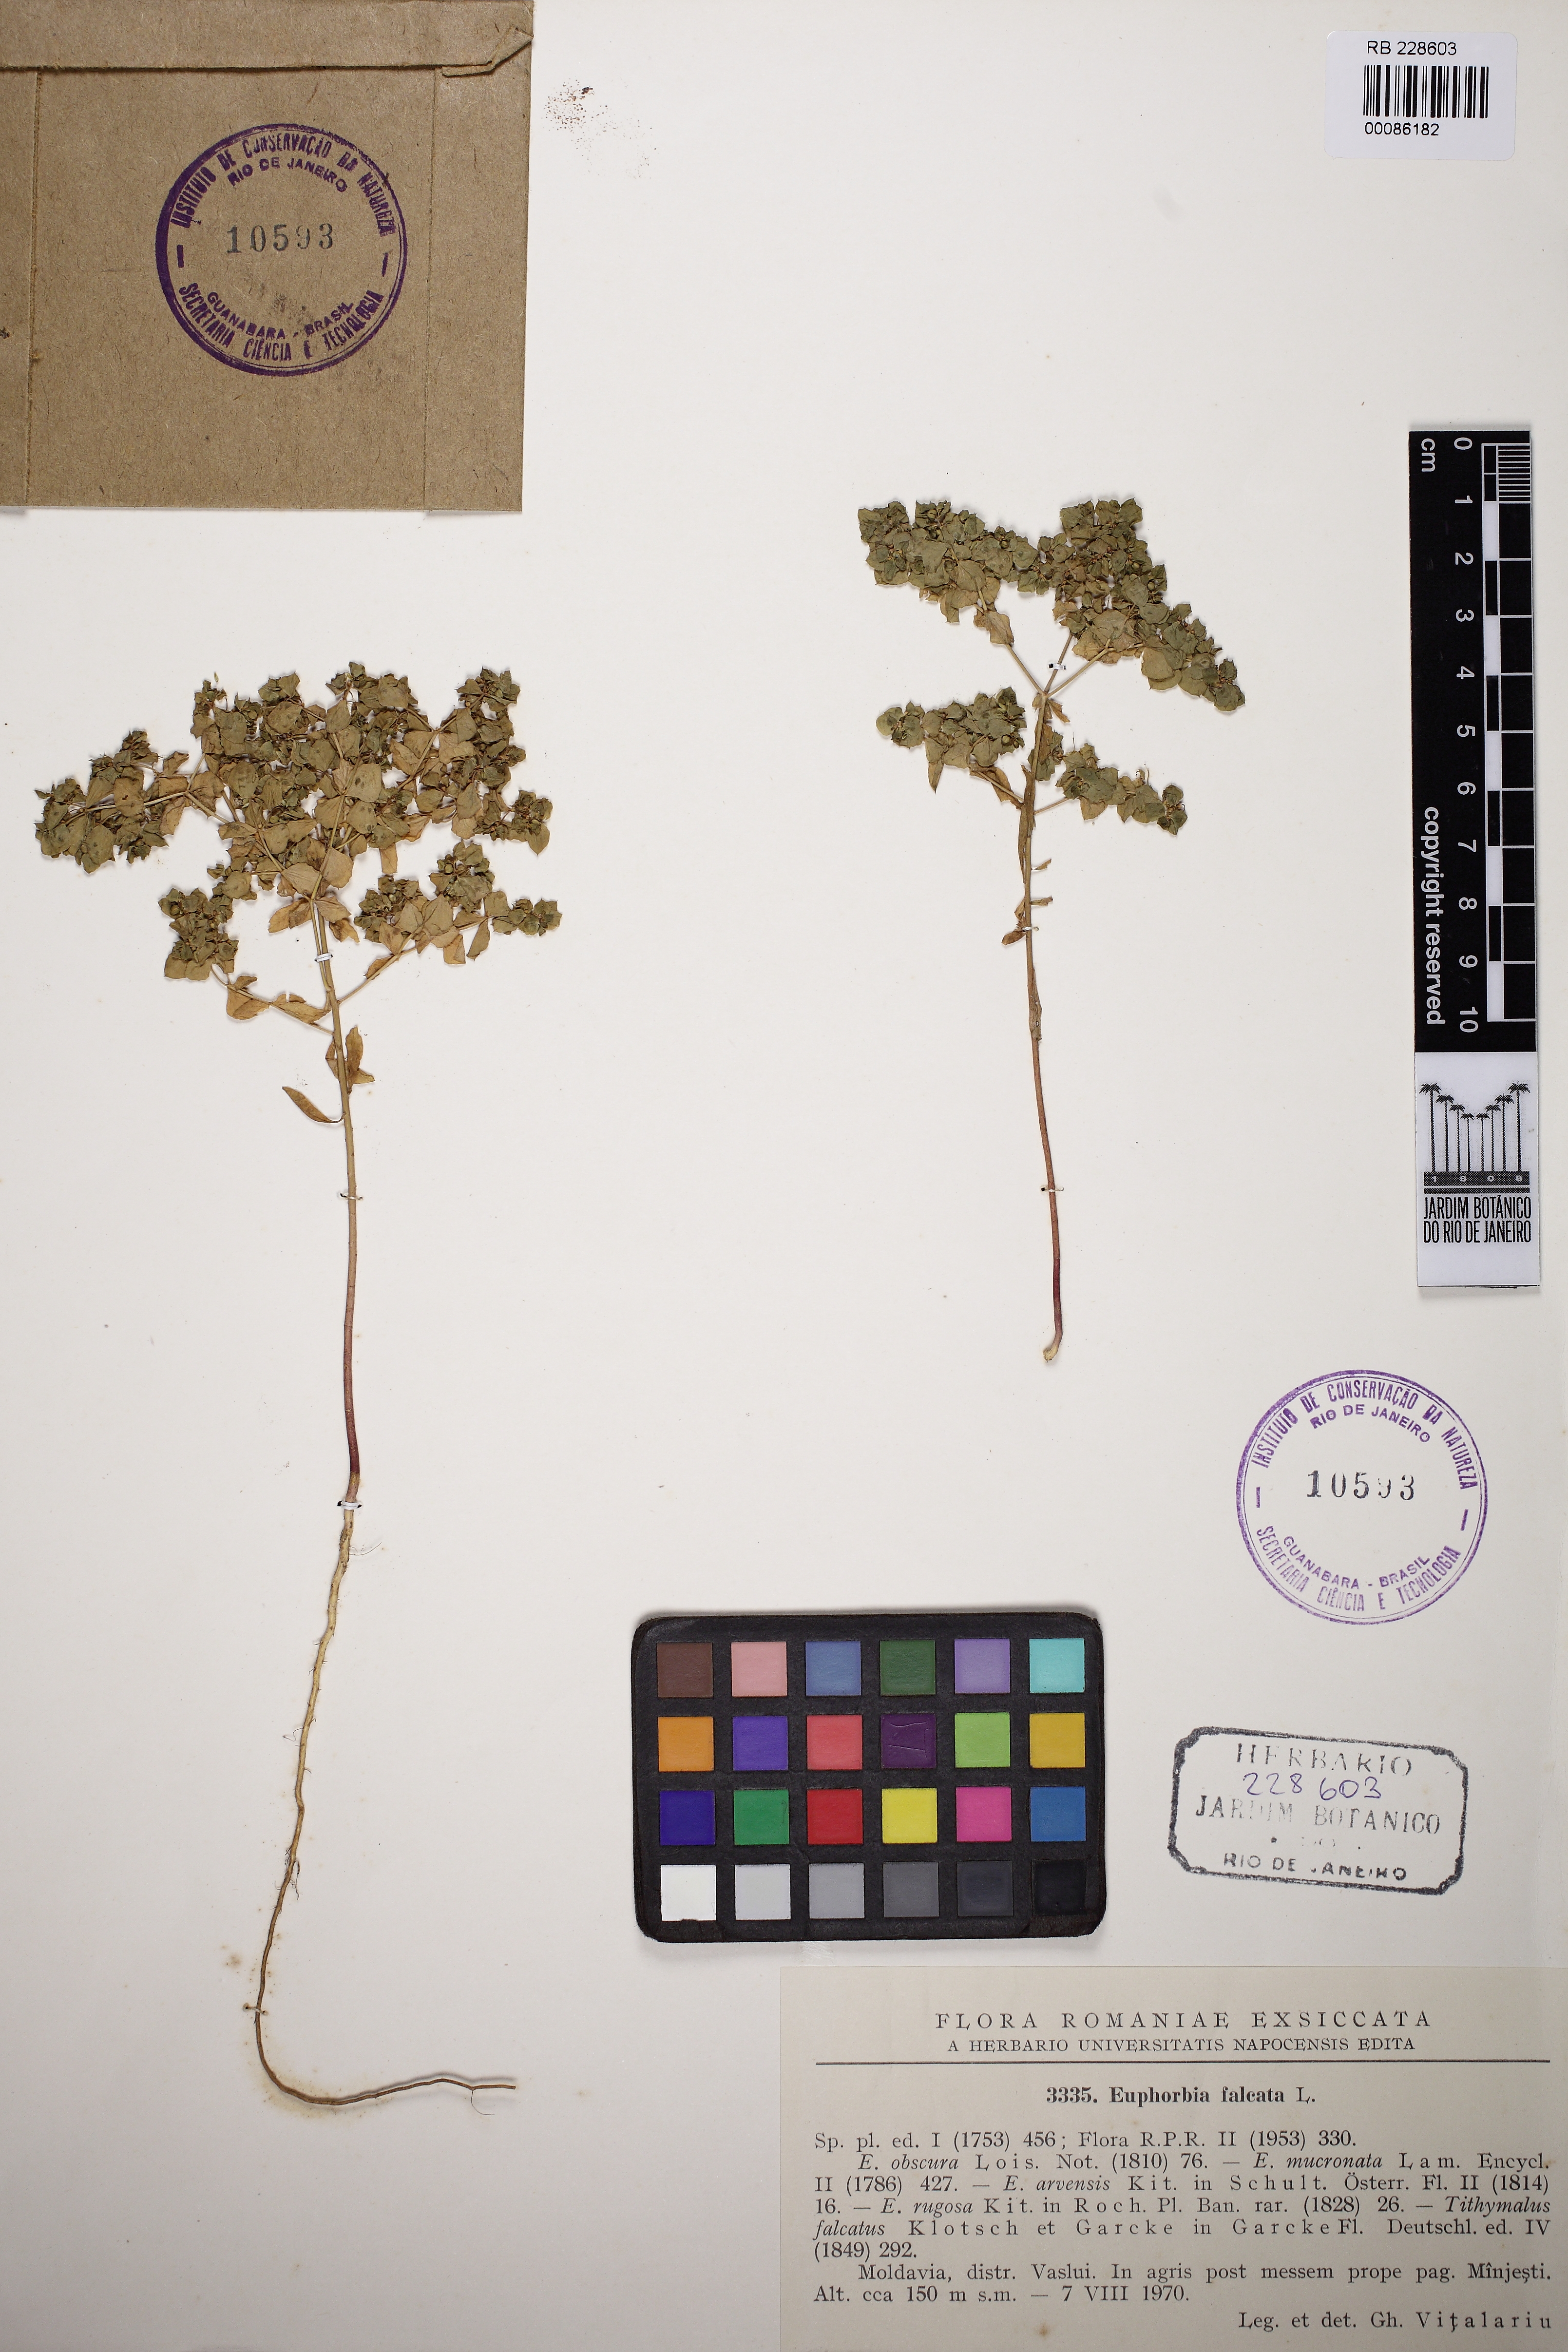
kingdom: Plantae
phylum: Tracheophyta
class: Magnoliopsida
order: Malpighiales
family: Euphorbiaceae
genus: Euphorbia
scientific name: Euphorbia falcata
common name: Sickle spurge
